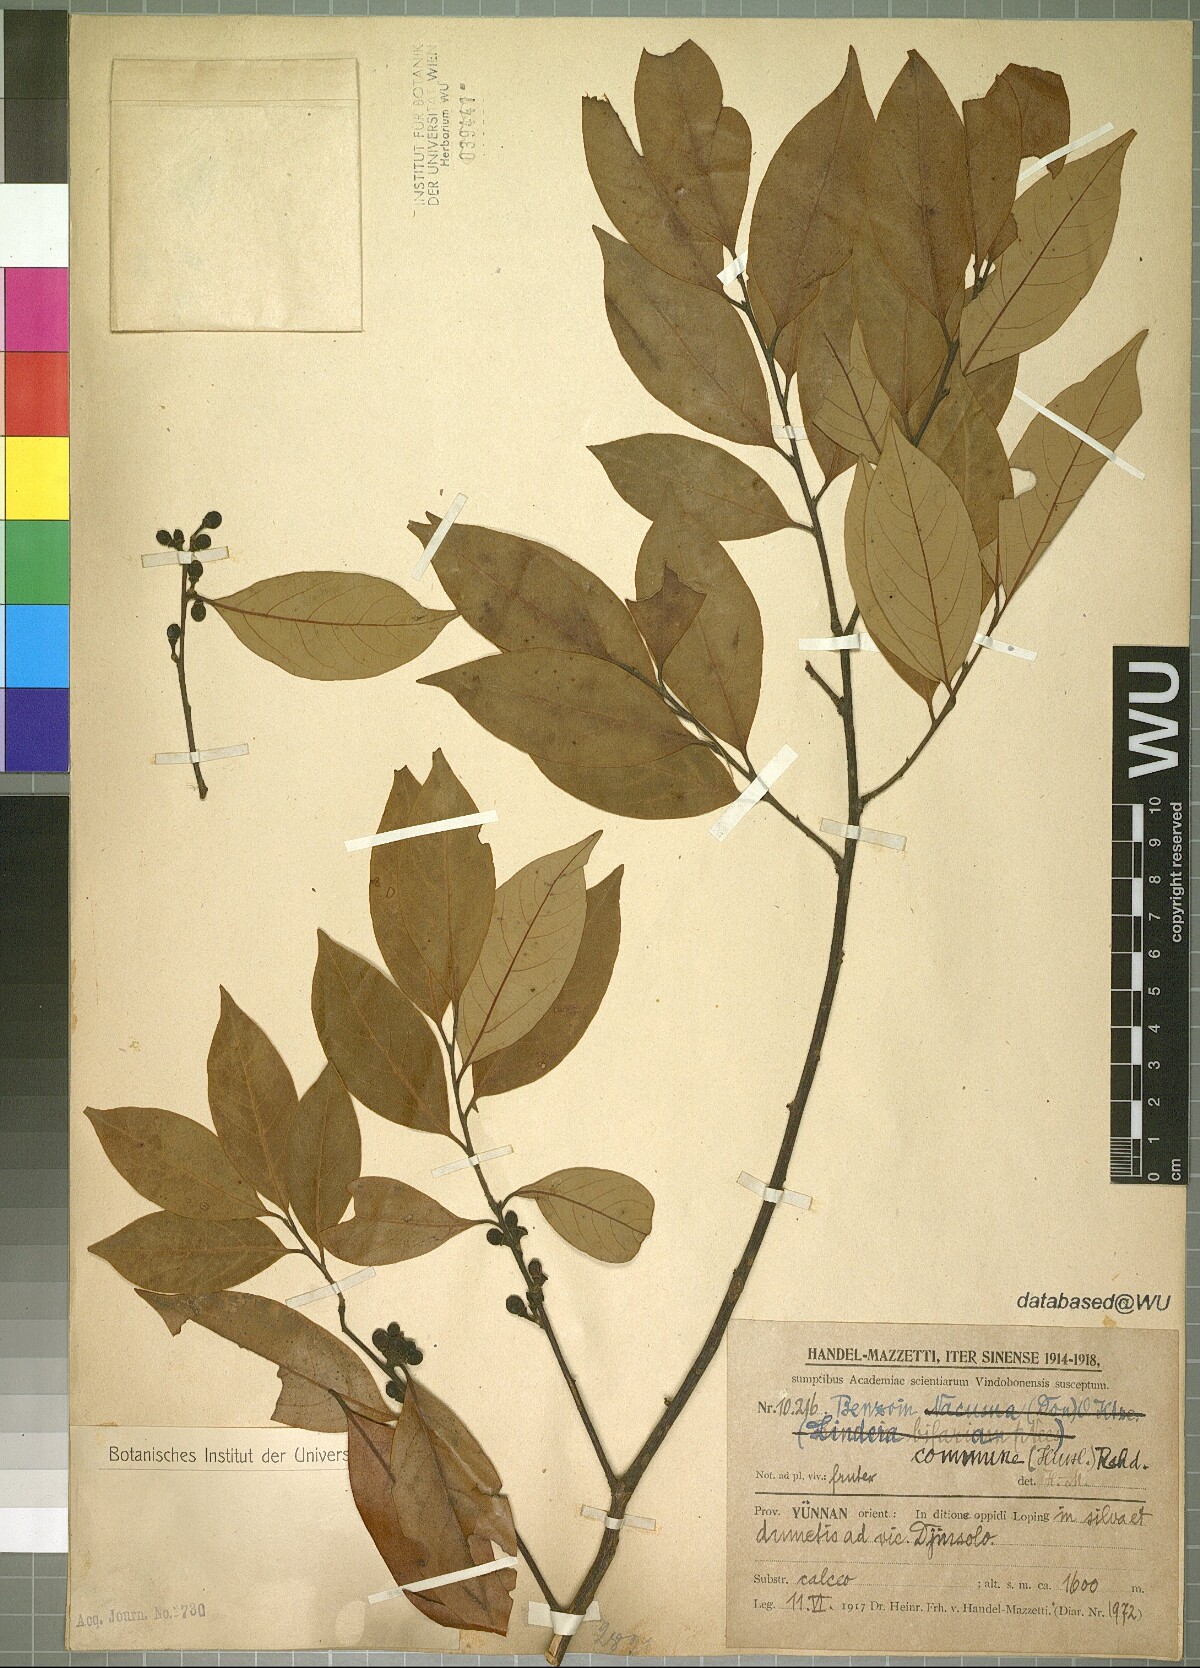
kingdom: Plantae
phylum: Tracheophyta
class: Magnoliopsida
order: Laurales
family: Lauraceae
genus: Lindera
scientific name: Lindera communis
